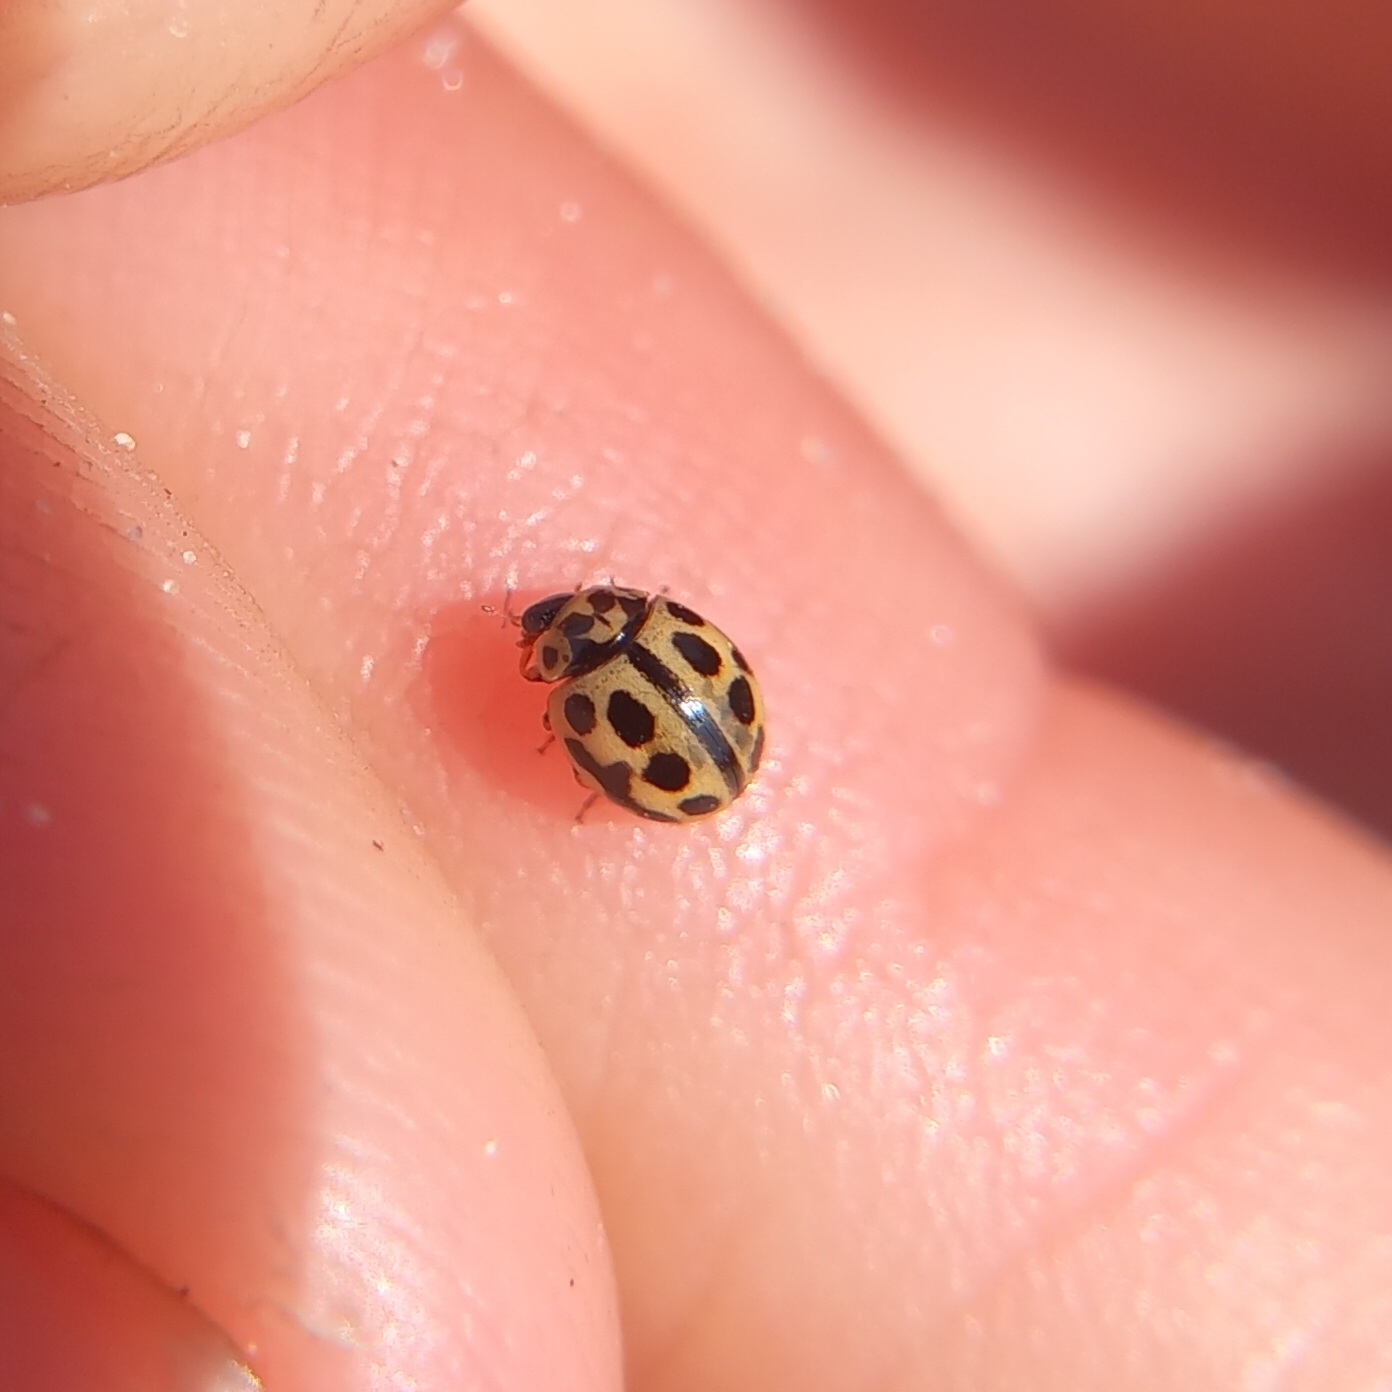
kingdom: Animalia
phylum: Arthropoda
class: Insecta
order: Coleoptera
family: Coccinellidae
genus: Tytthaspis
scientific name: Tytthaspis sedecimpunctata
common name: Sekstenprikket mariehøne
